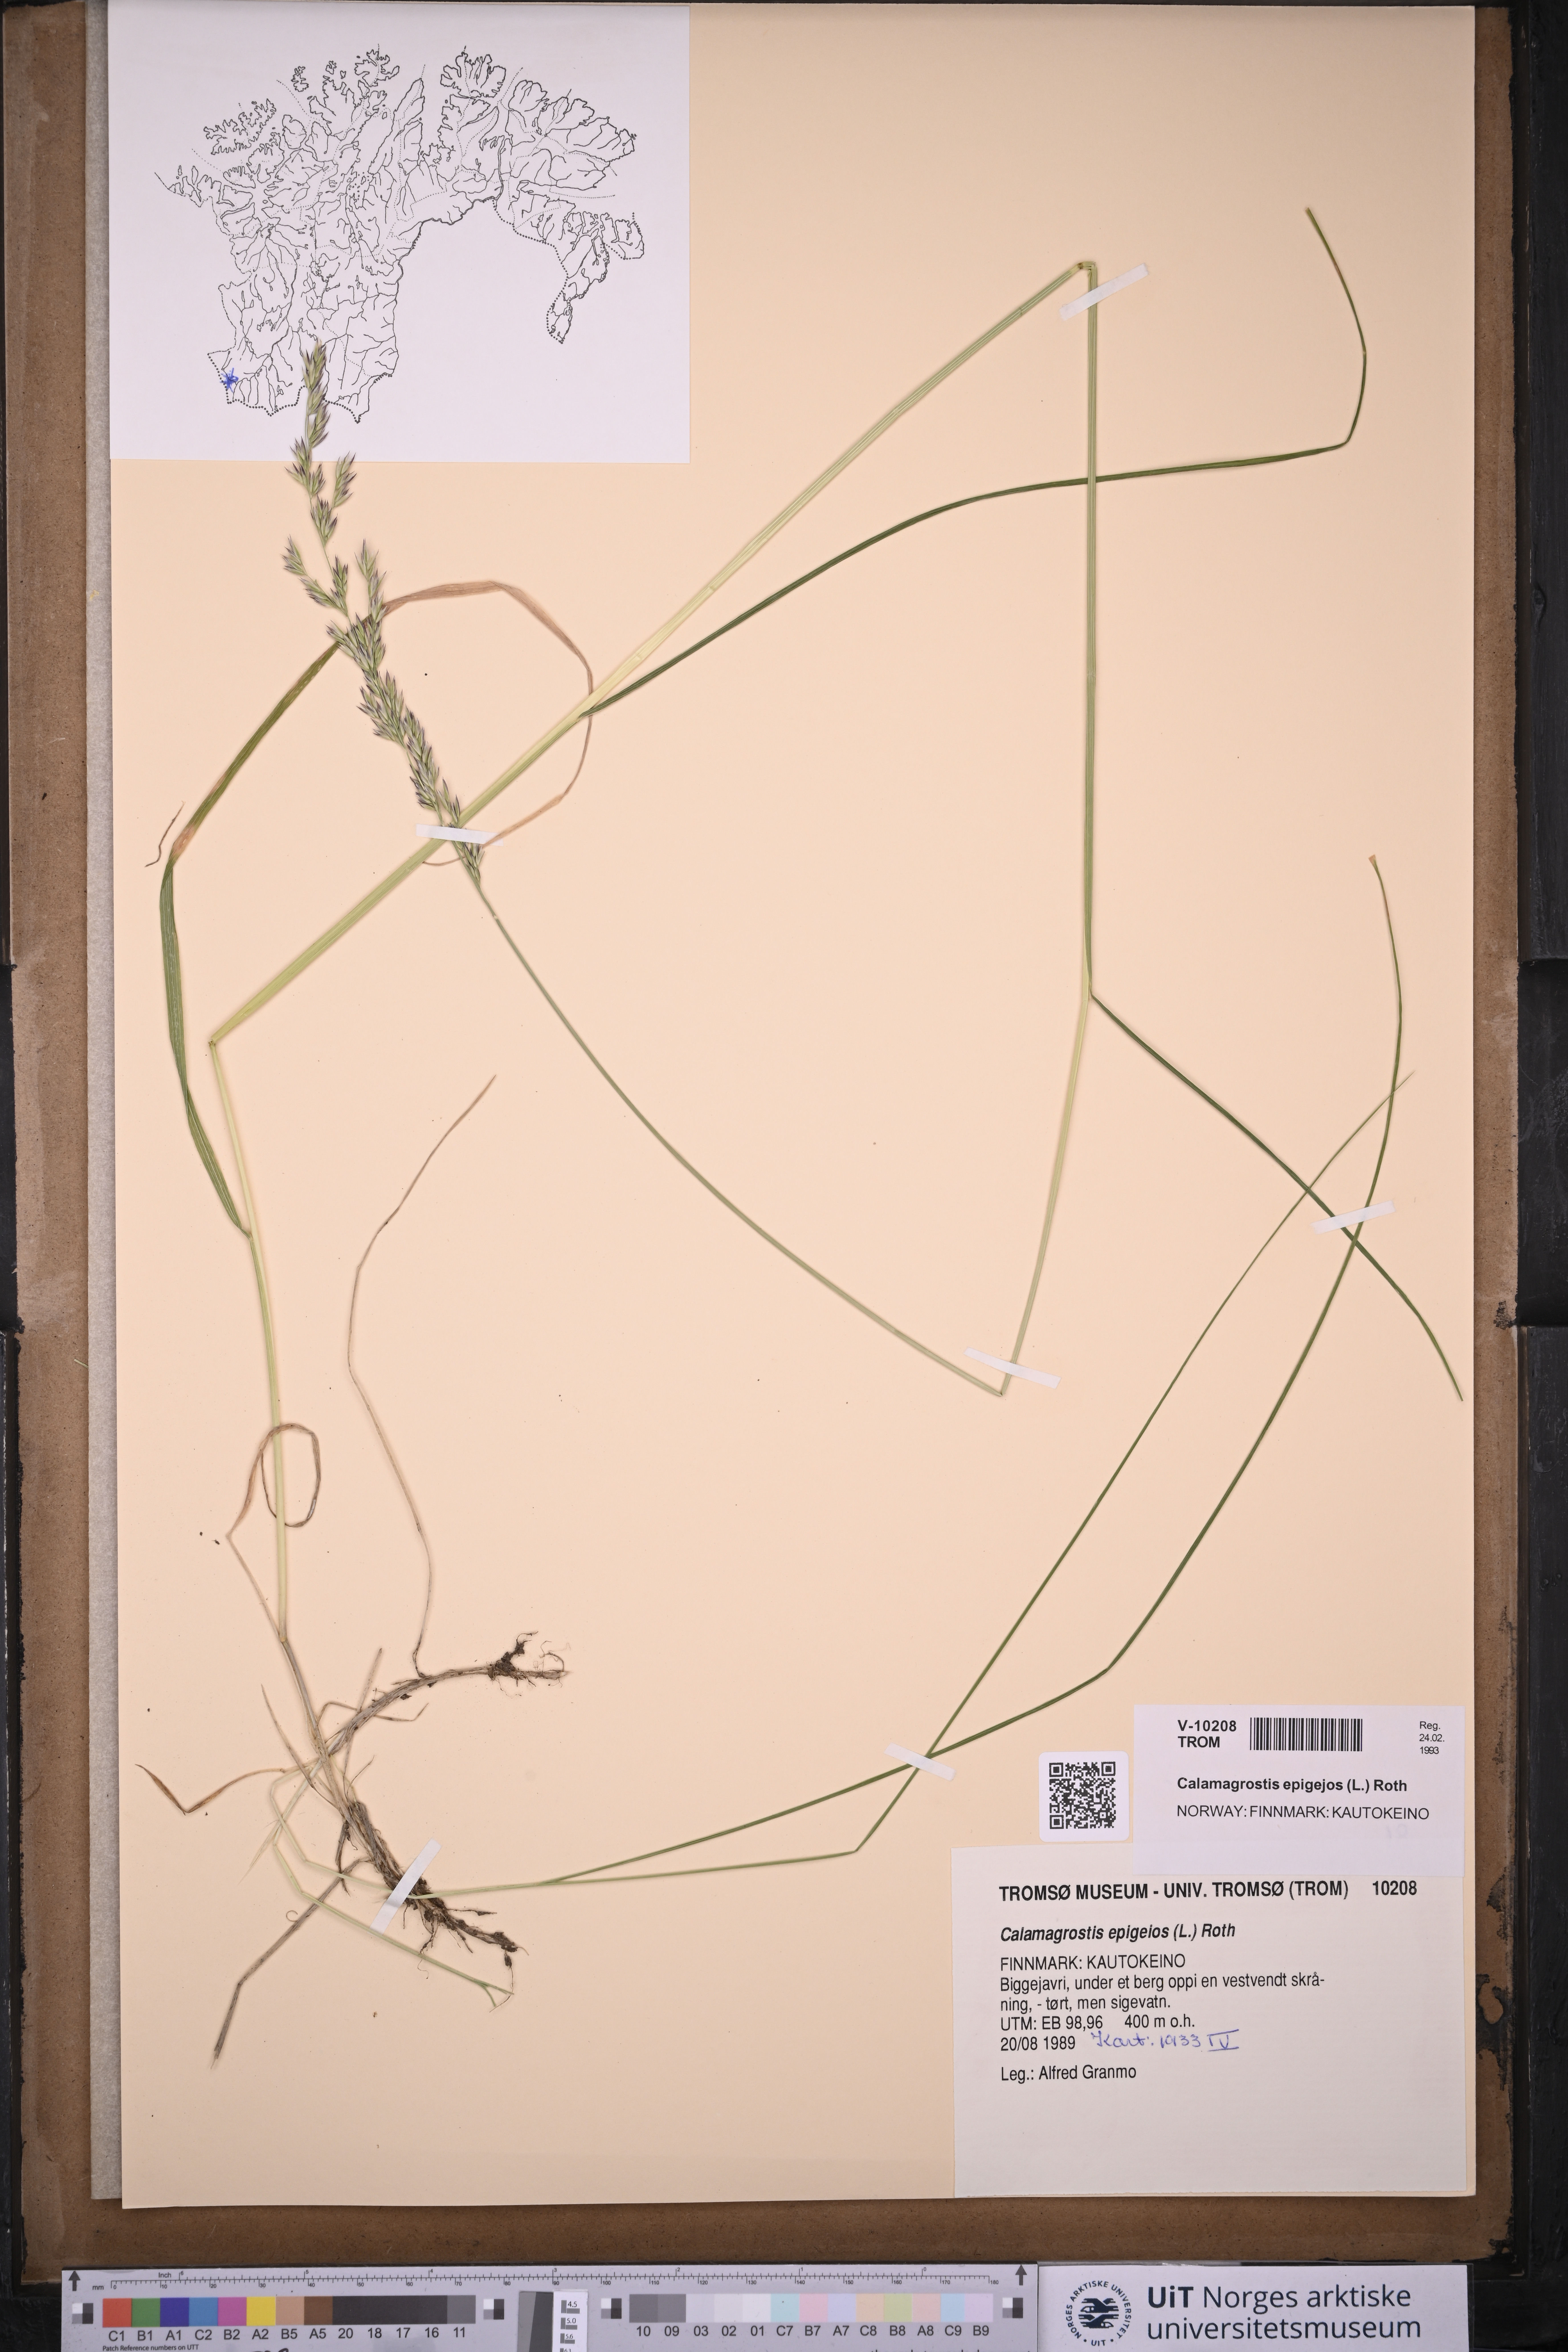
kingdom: Plantae
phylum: Tracheophyta
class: Liliopsida
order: Poales
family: Poaceae
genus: Calamagrostis
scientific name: Calamagrostis epigejos
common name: Wood small-reed
